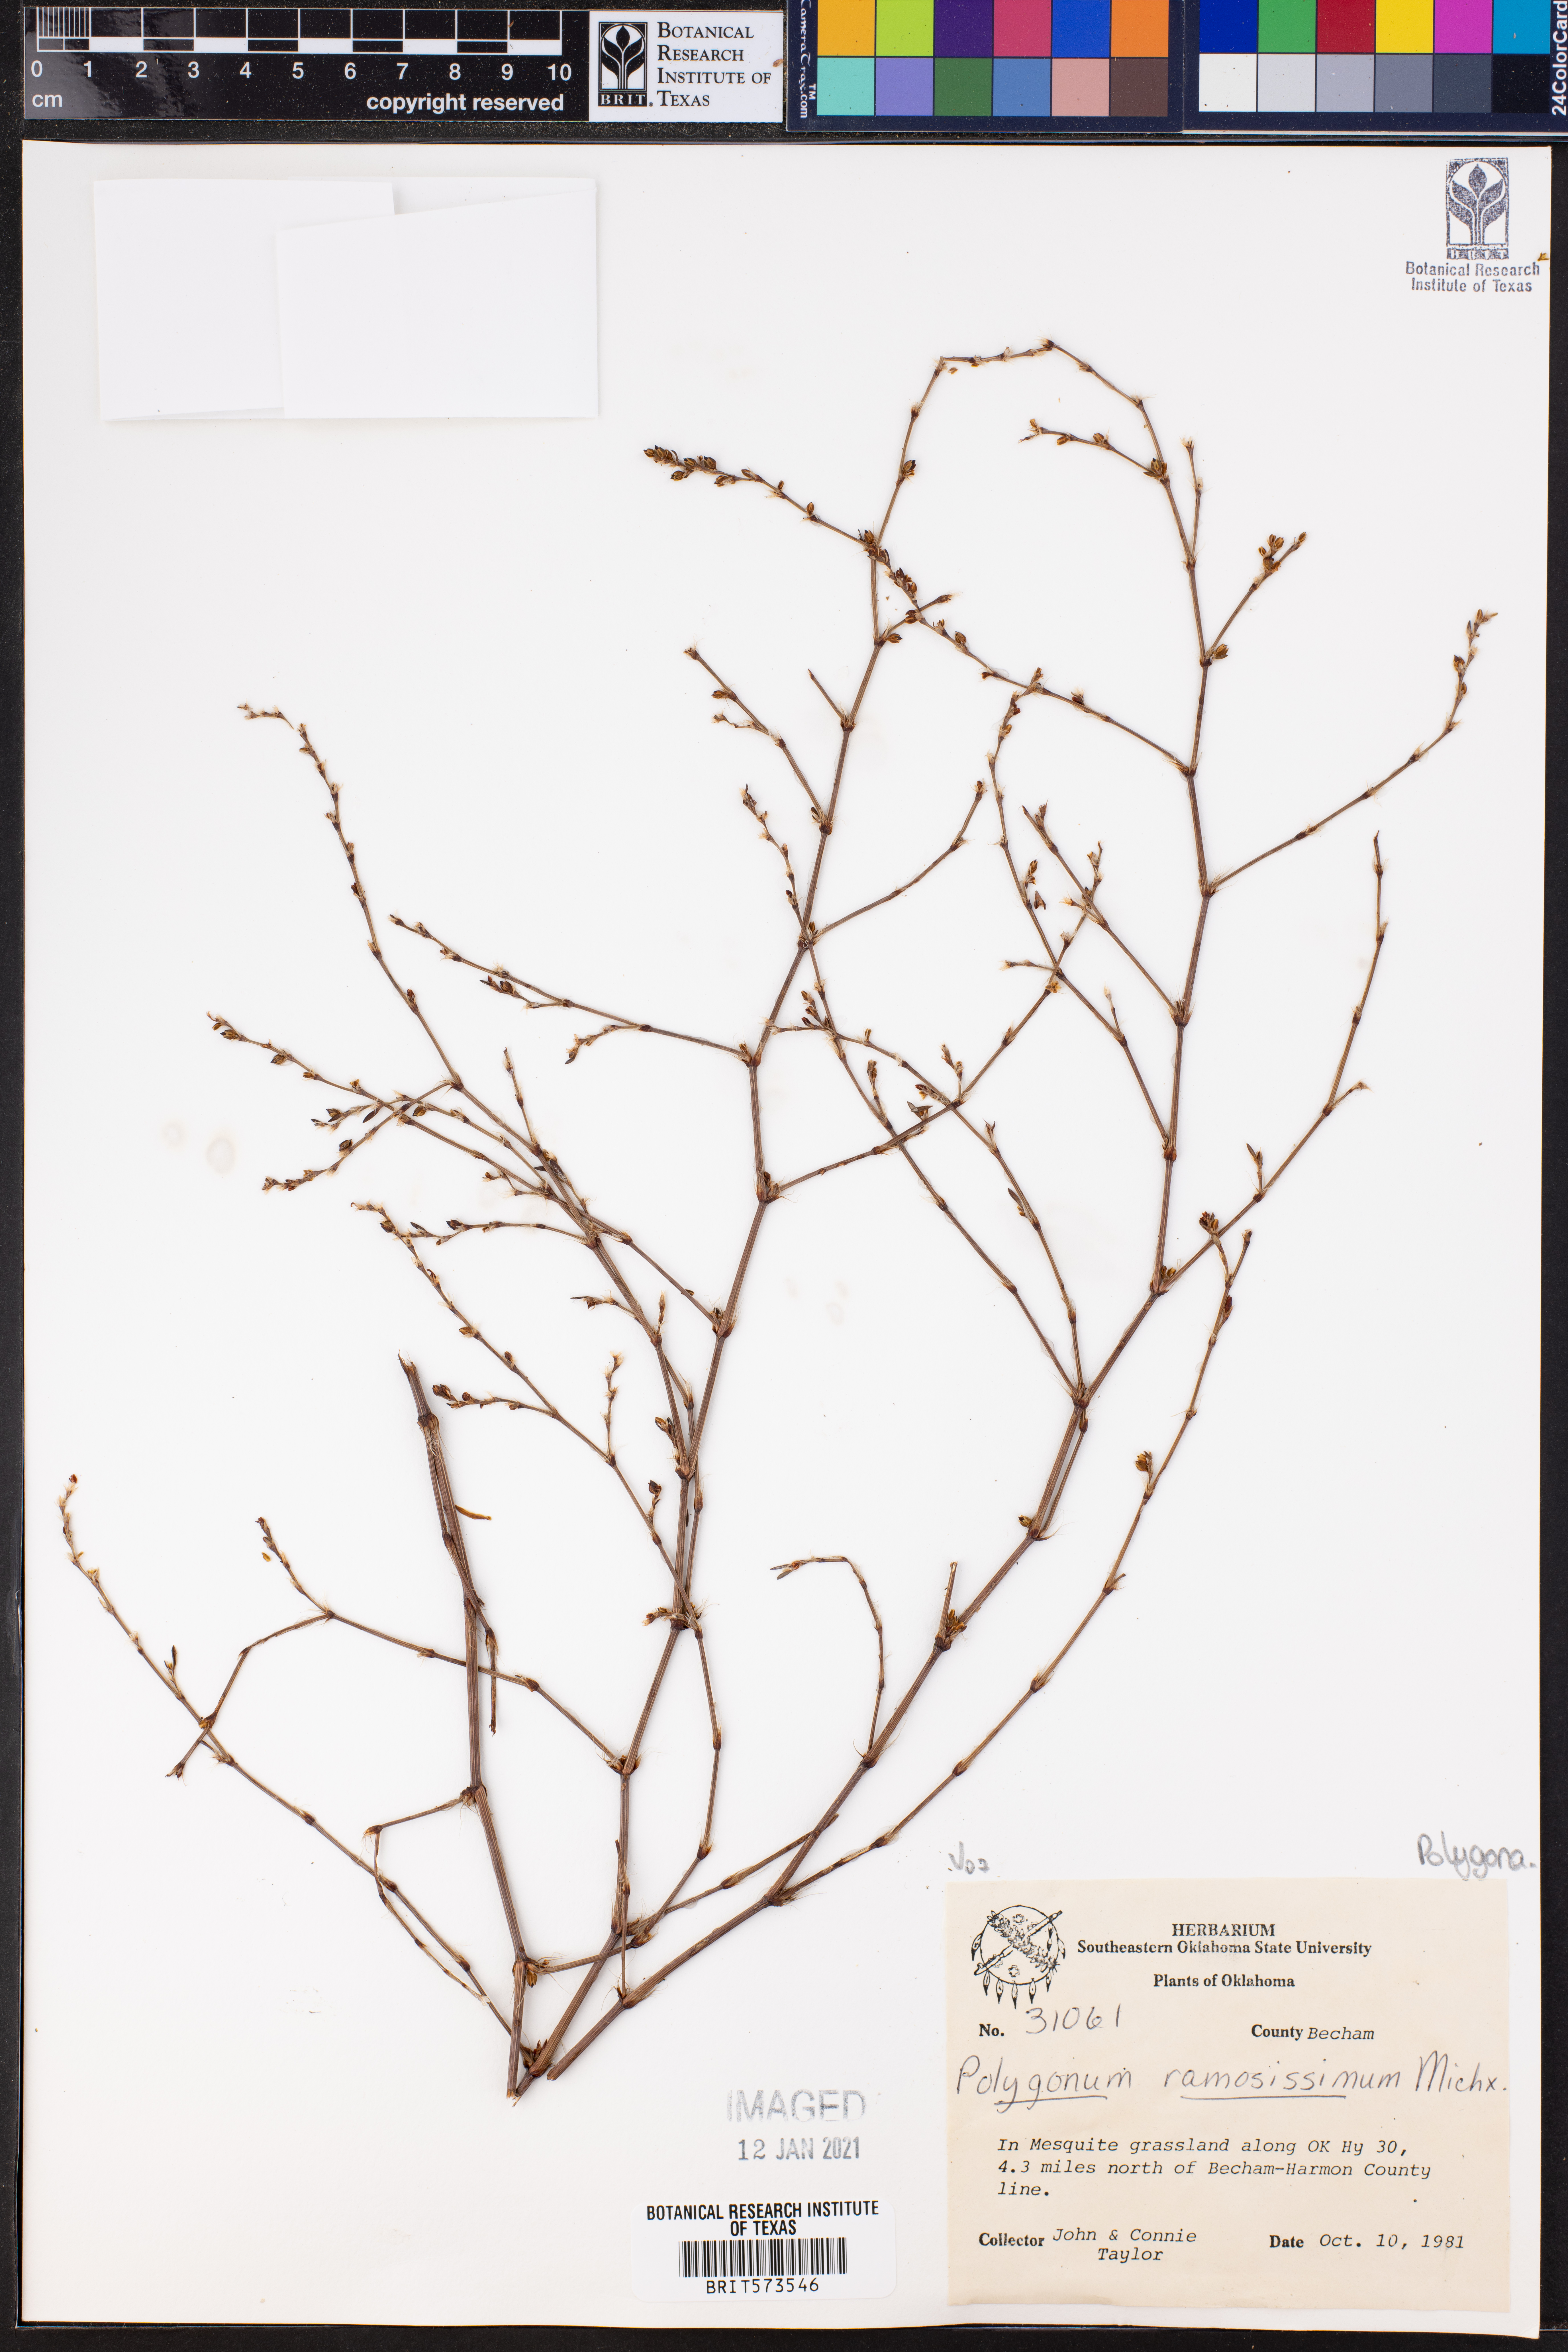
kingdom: Plantae
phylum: Tracheophyta
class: Magnoliopsida
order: Caryophyllales
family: Polygonaceae
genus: Polygonum
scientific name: Polygonum ramosissimum
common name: Bushy knotweed
